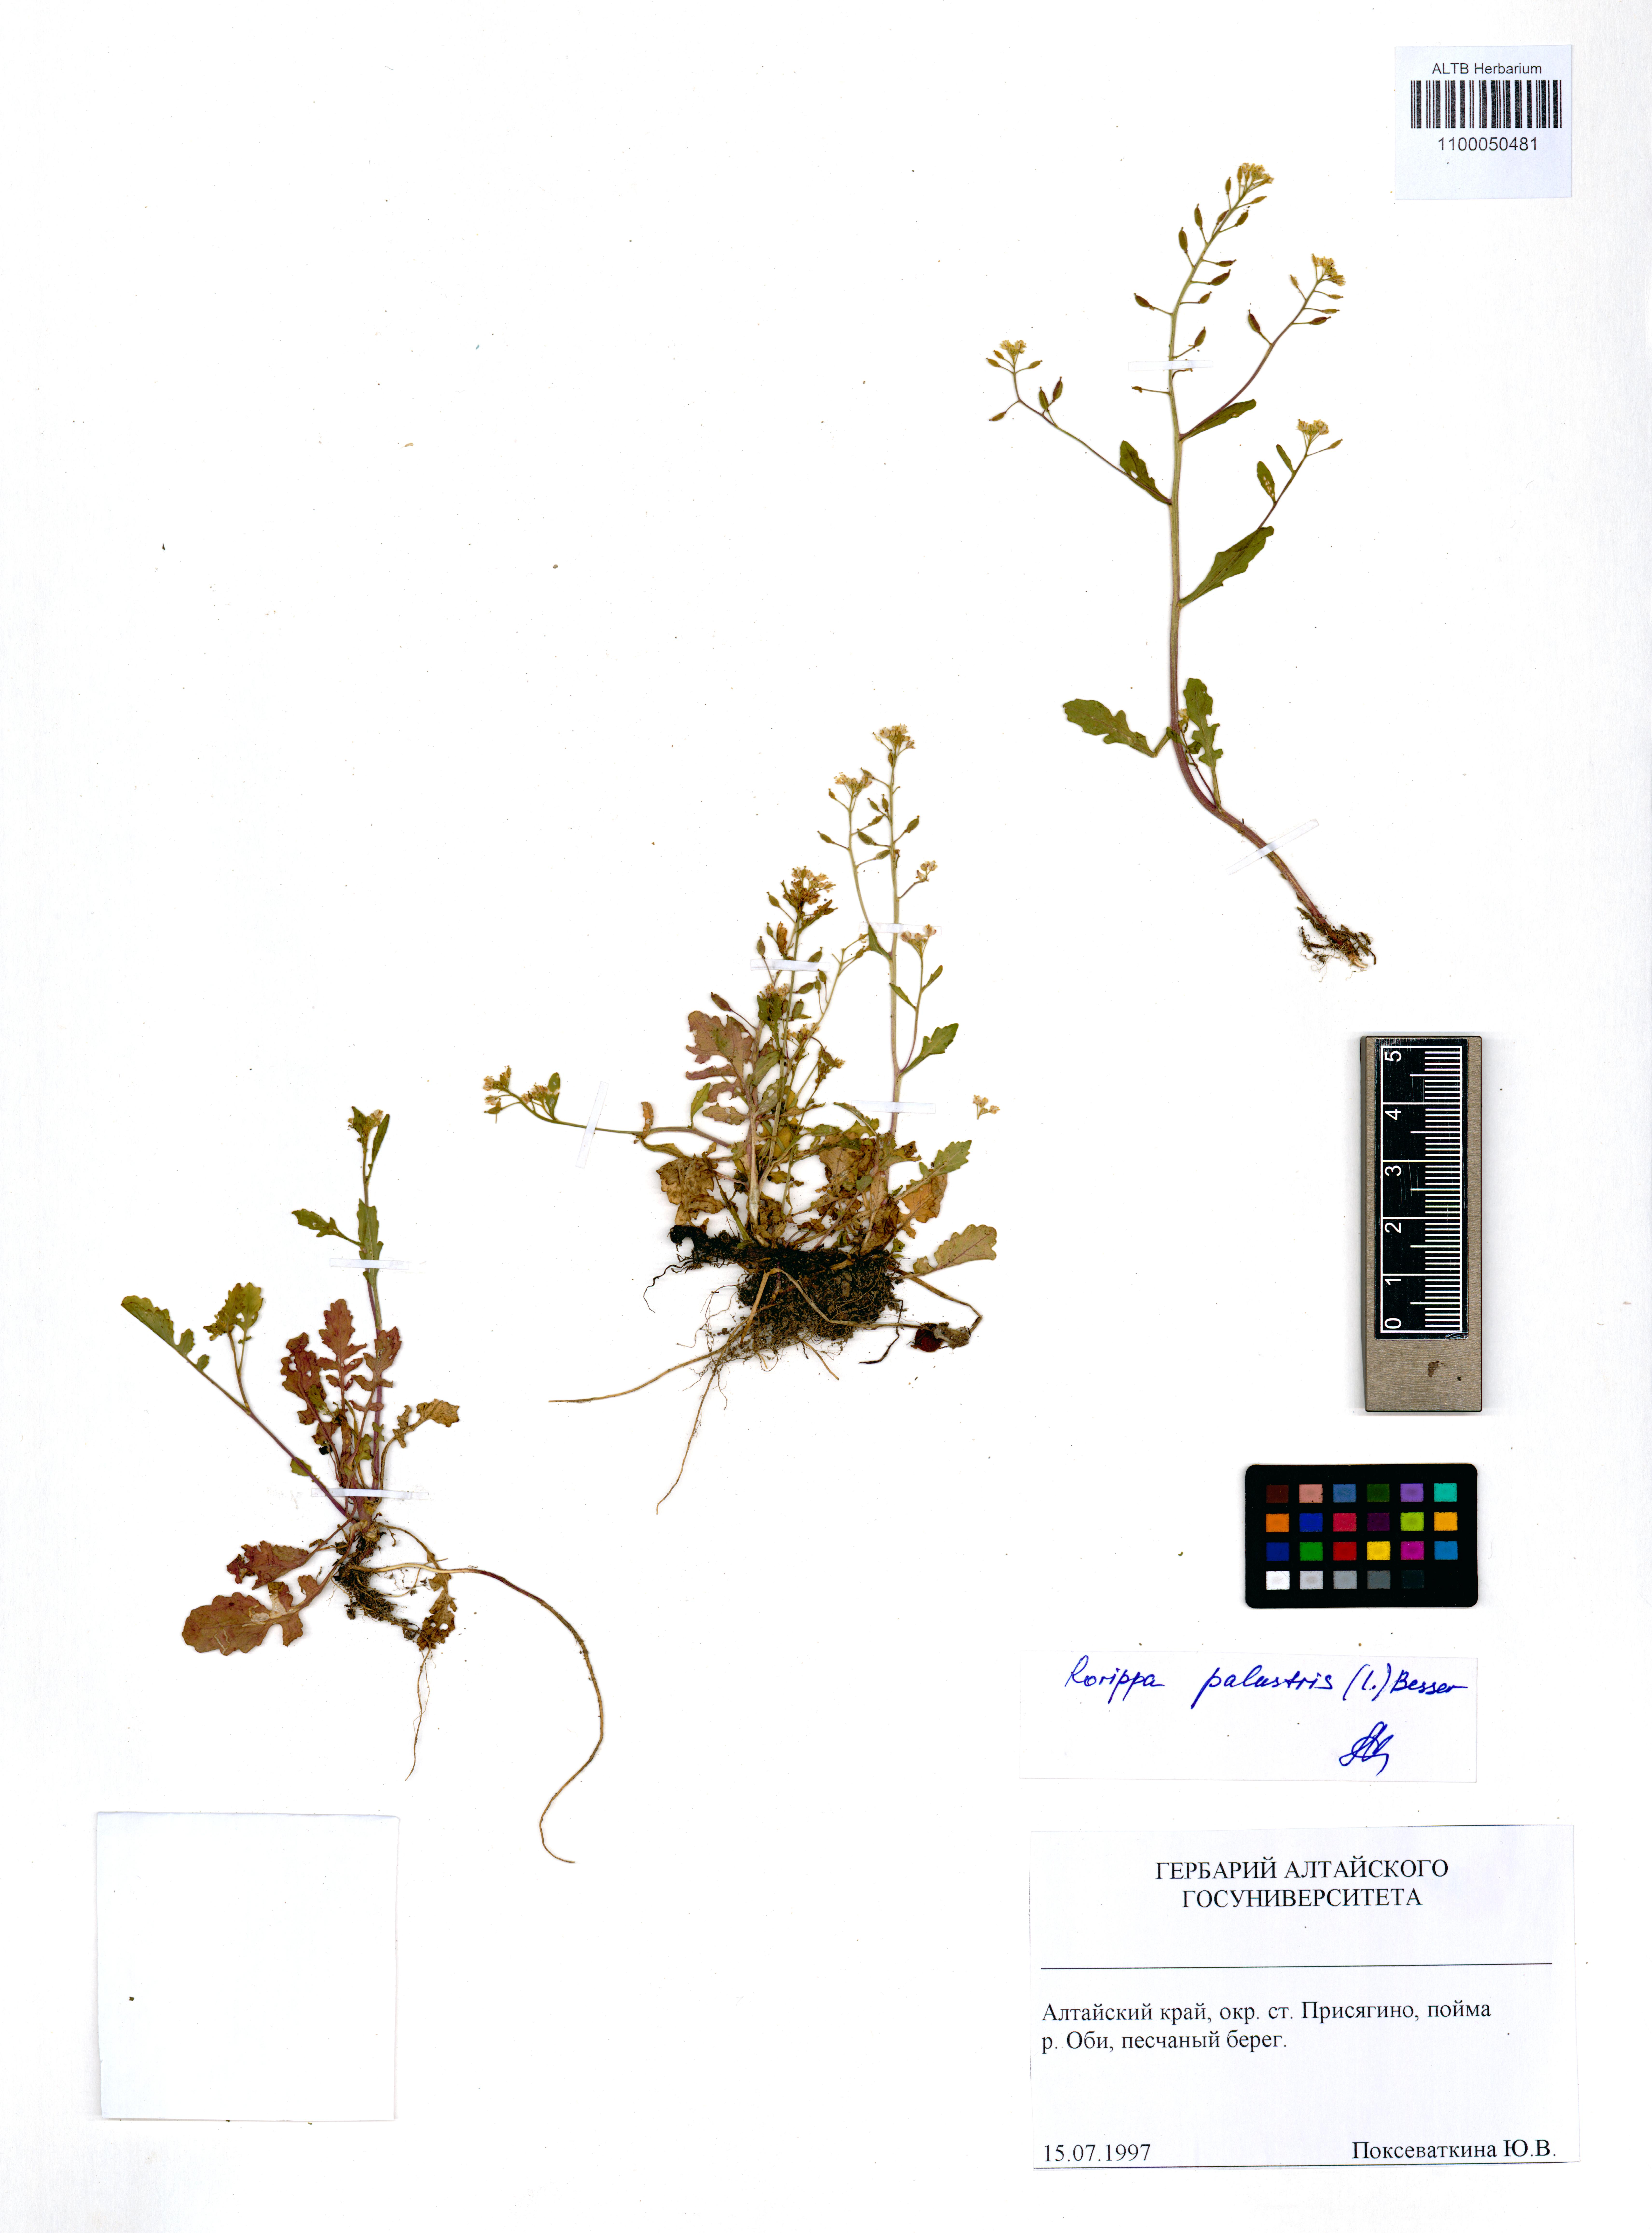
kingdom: Plantae
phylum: Tracheophyta
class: Magnoliopsida
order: Brassicales
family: Brassicaceae
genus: Rorippa
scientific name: Rorippa palustris
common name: Marsh yellow-cress
